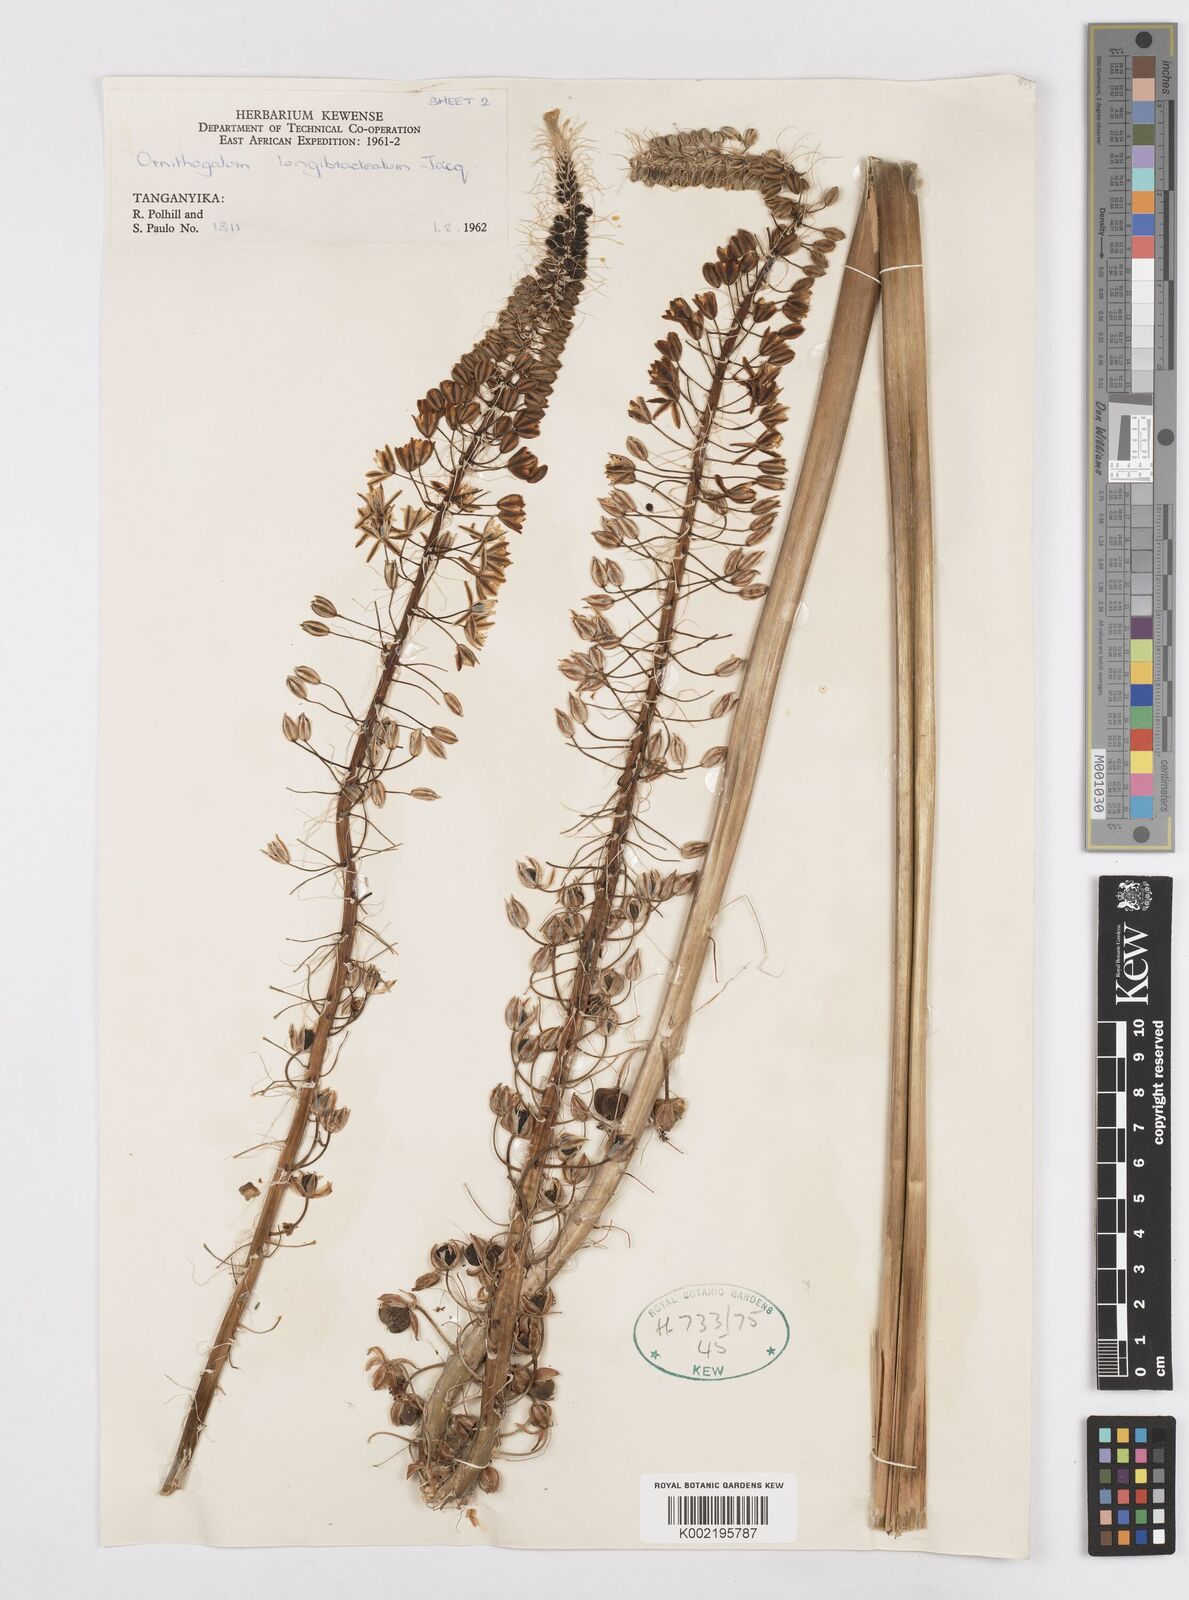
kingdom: Plantae
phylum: Tracheophyta
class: Liliopsida
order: Asparagales
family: Asparagaceae
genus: Albuca
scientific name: Albuca bracteata
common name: Sea-onion
